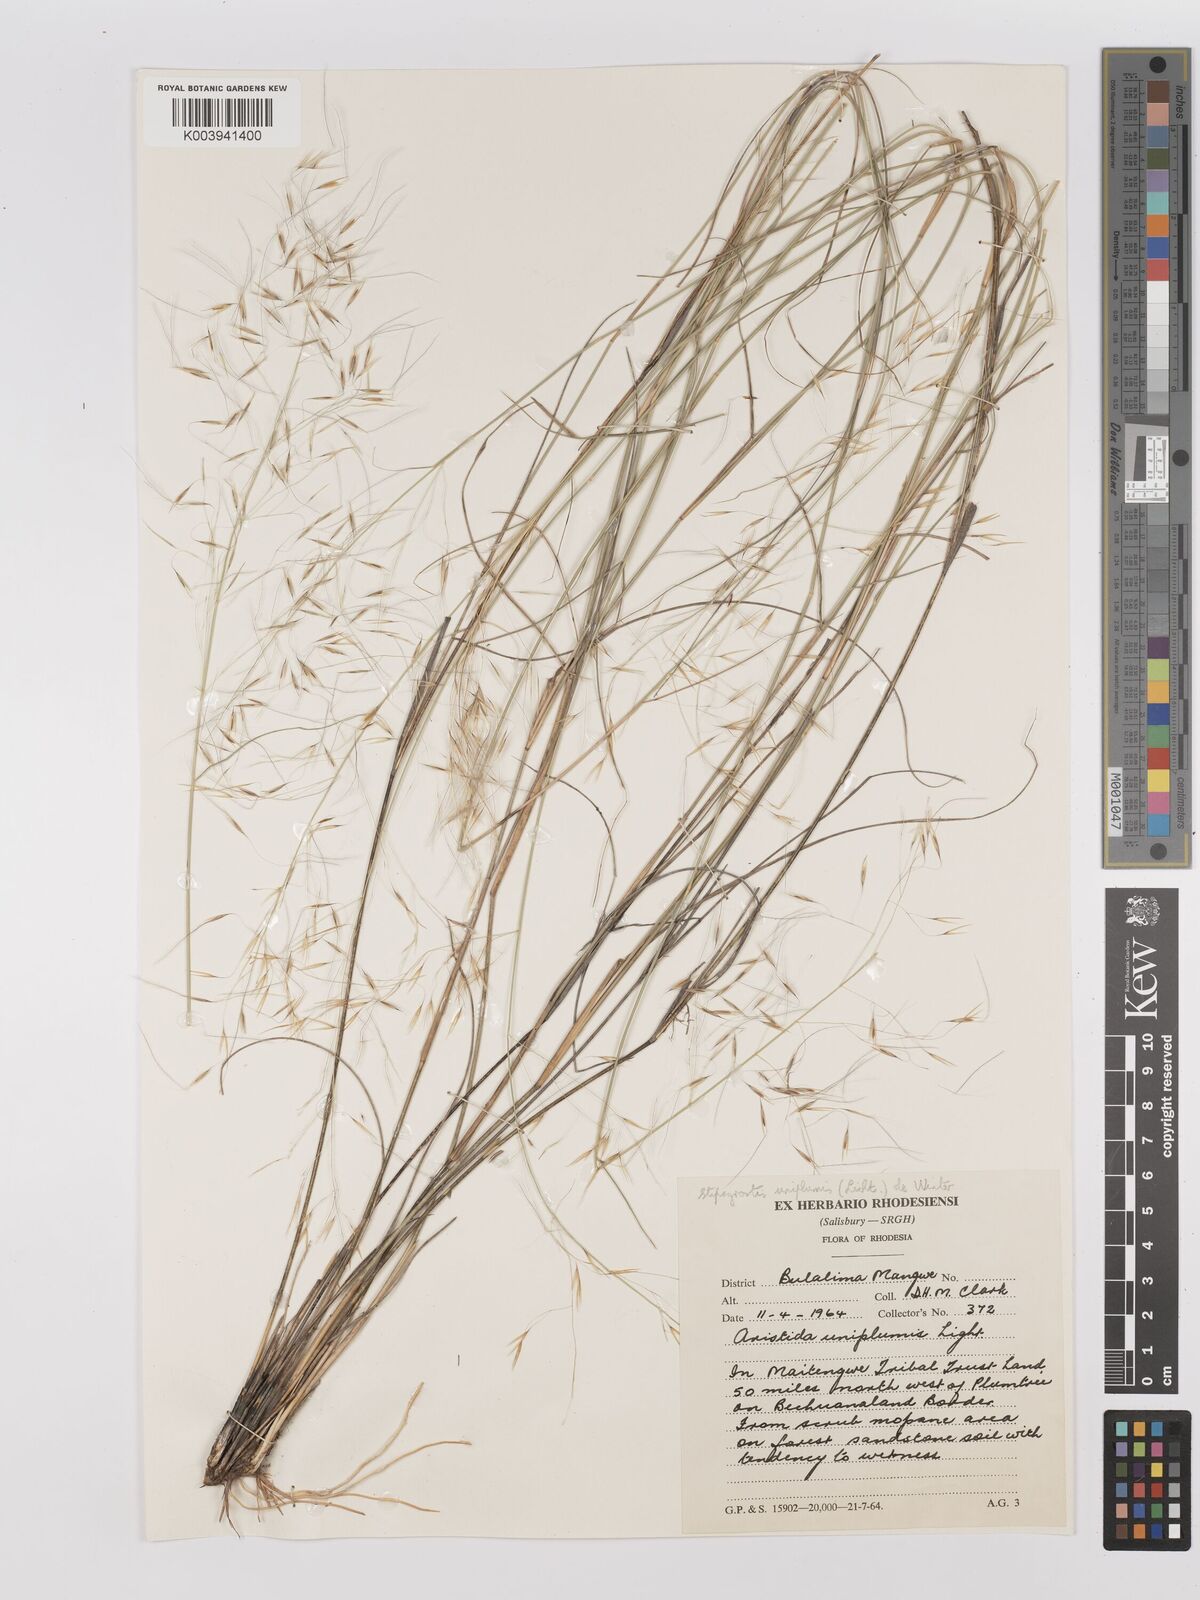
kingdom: Plantae
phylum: Tracheophyta
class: Liliopsida
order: Poales
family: Poaceae
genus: Stipagrostis
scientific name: Stipagrostis uniplumis
